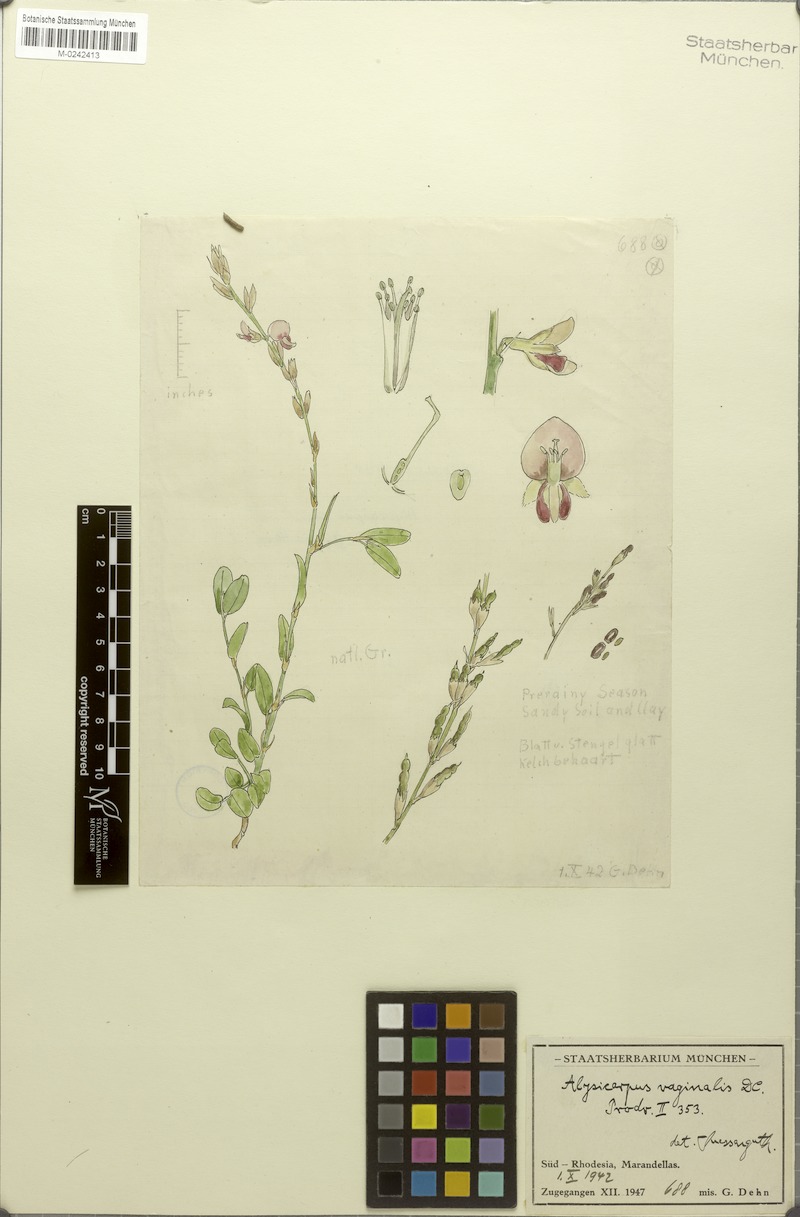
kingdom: Plantae
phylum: Tracheophyta
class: Magnoliopsida
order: Fabales
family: Fabaceae
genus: Alysicarpus
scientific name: Alysicarpus vaginalis
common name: White moneywort
